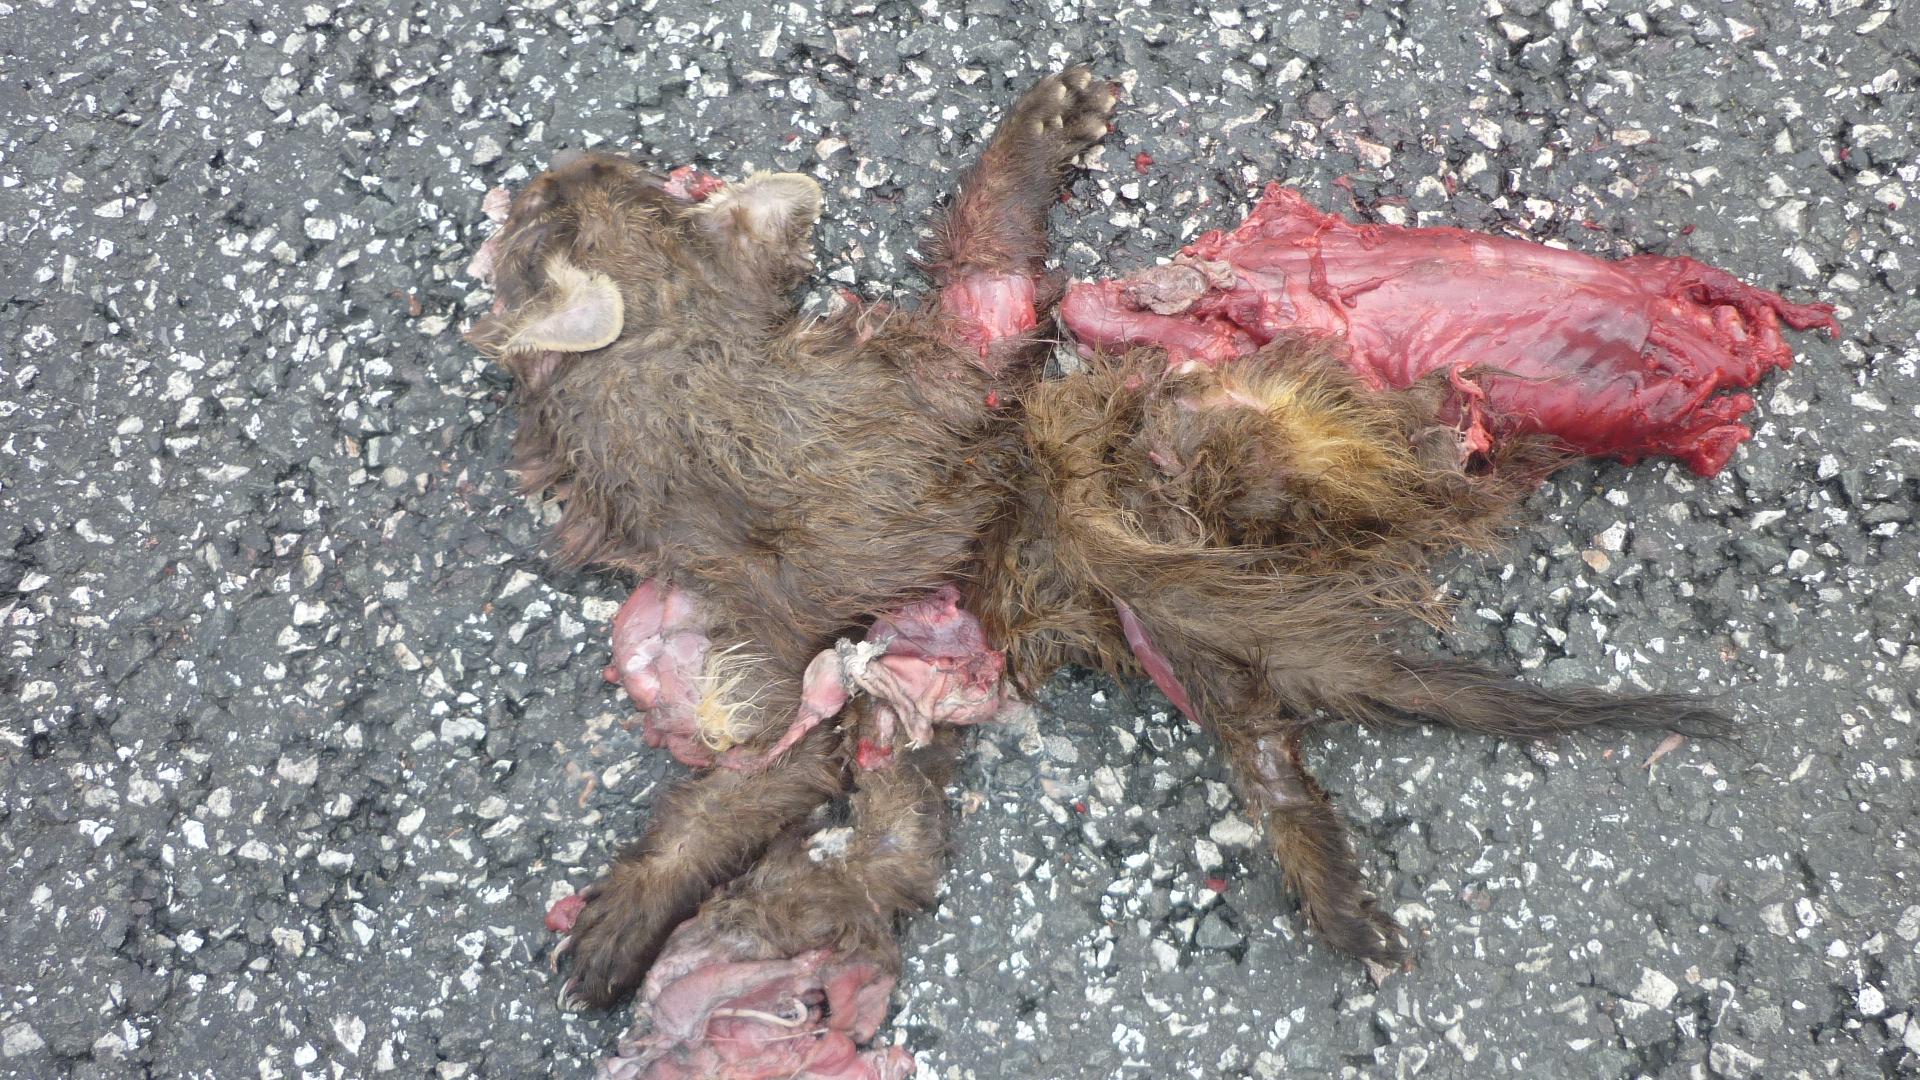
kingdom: Animalia
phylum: Chordata
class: Mammalia
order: Carnivora
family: Mustelidae
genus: Martes
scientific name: Martes
